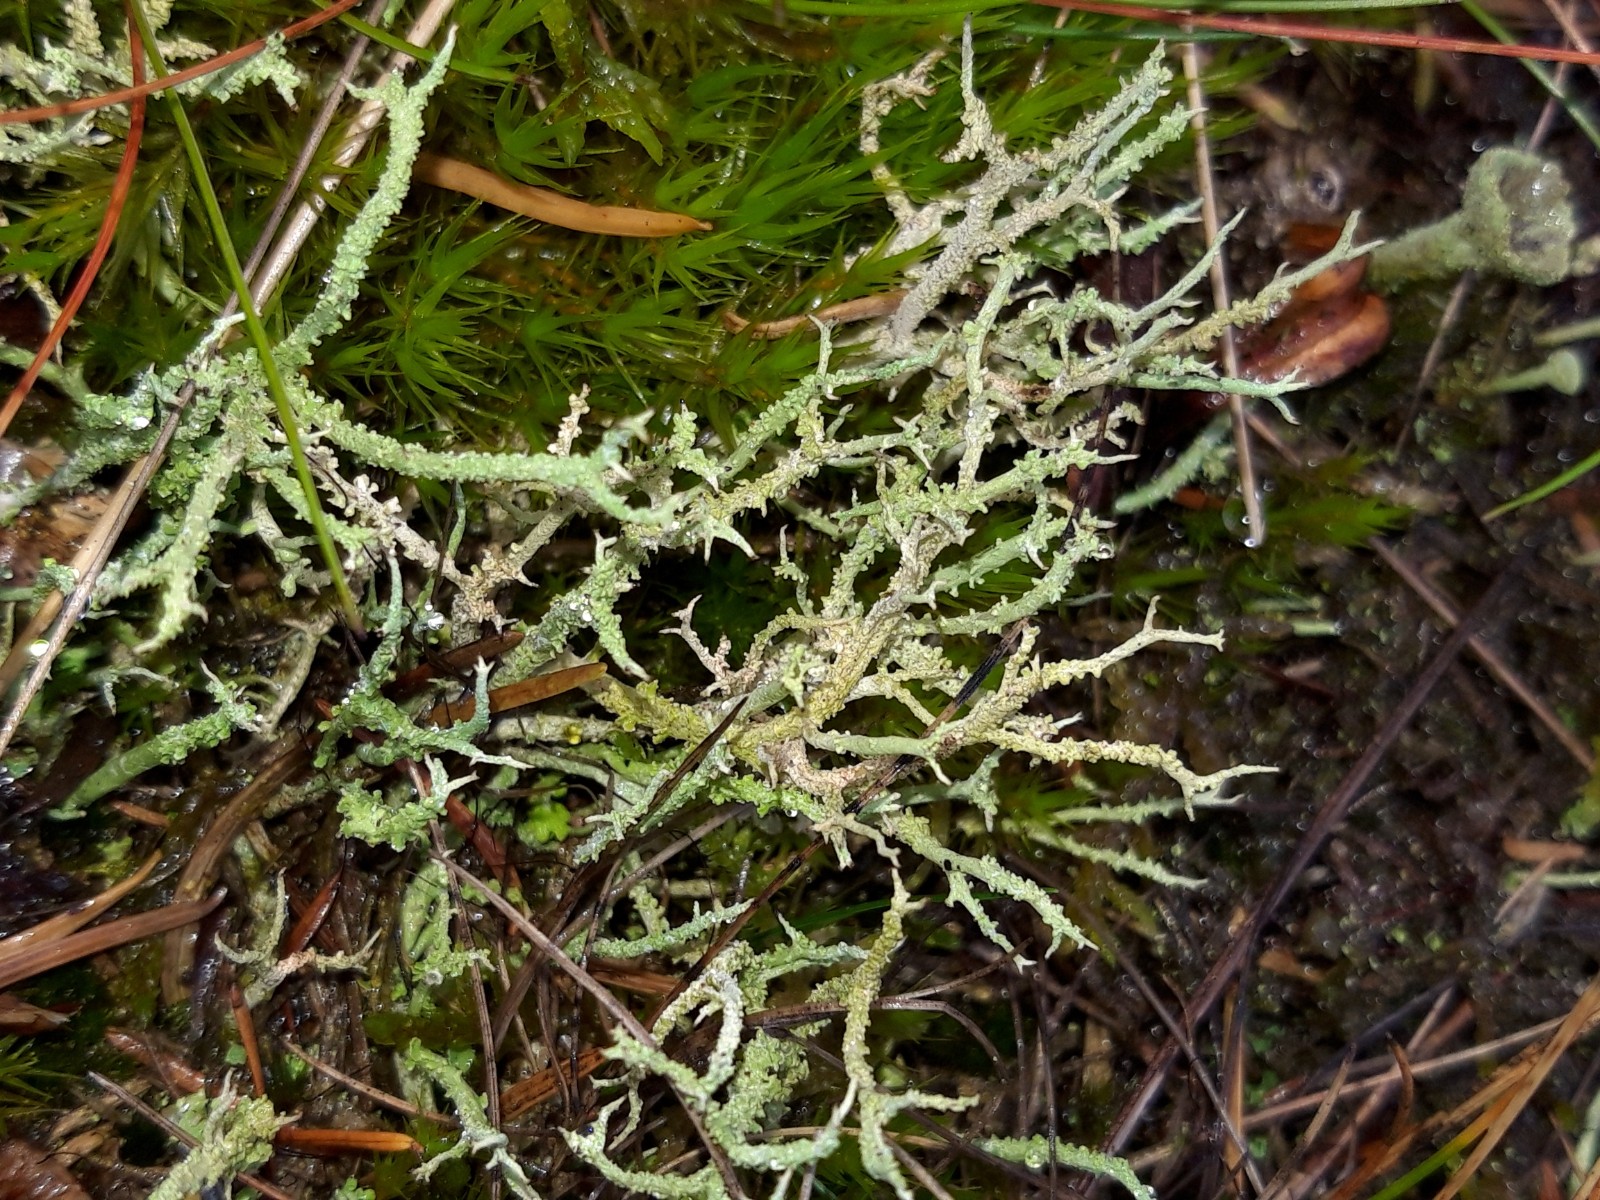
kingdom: Fungi
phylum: Ascomycota
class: Lecanoromycetes
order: Lecanorales
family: Cladoniaceae
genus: Cladonia
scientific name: Cladonia scabriuscula
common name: ru bægerlav
